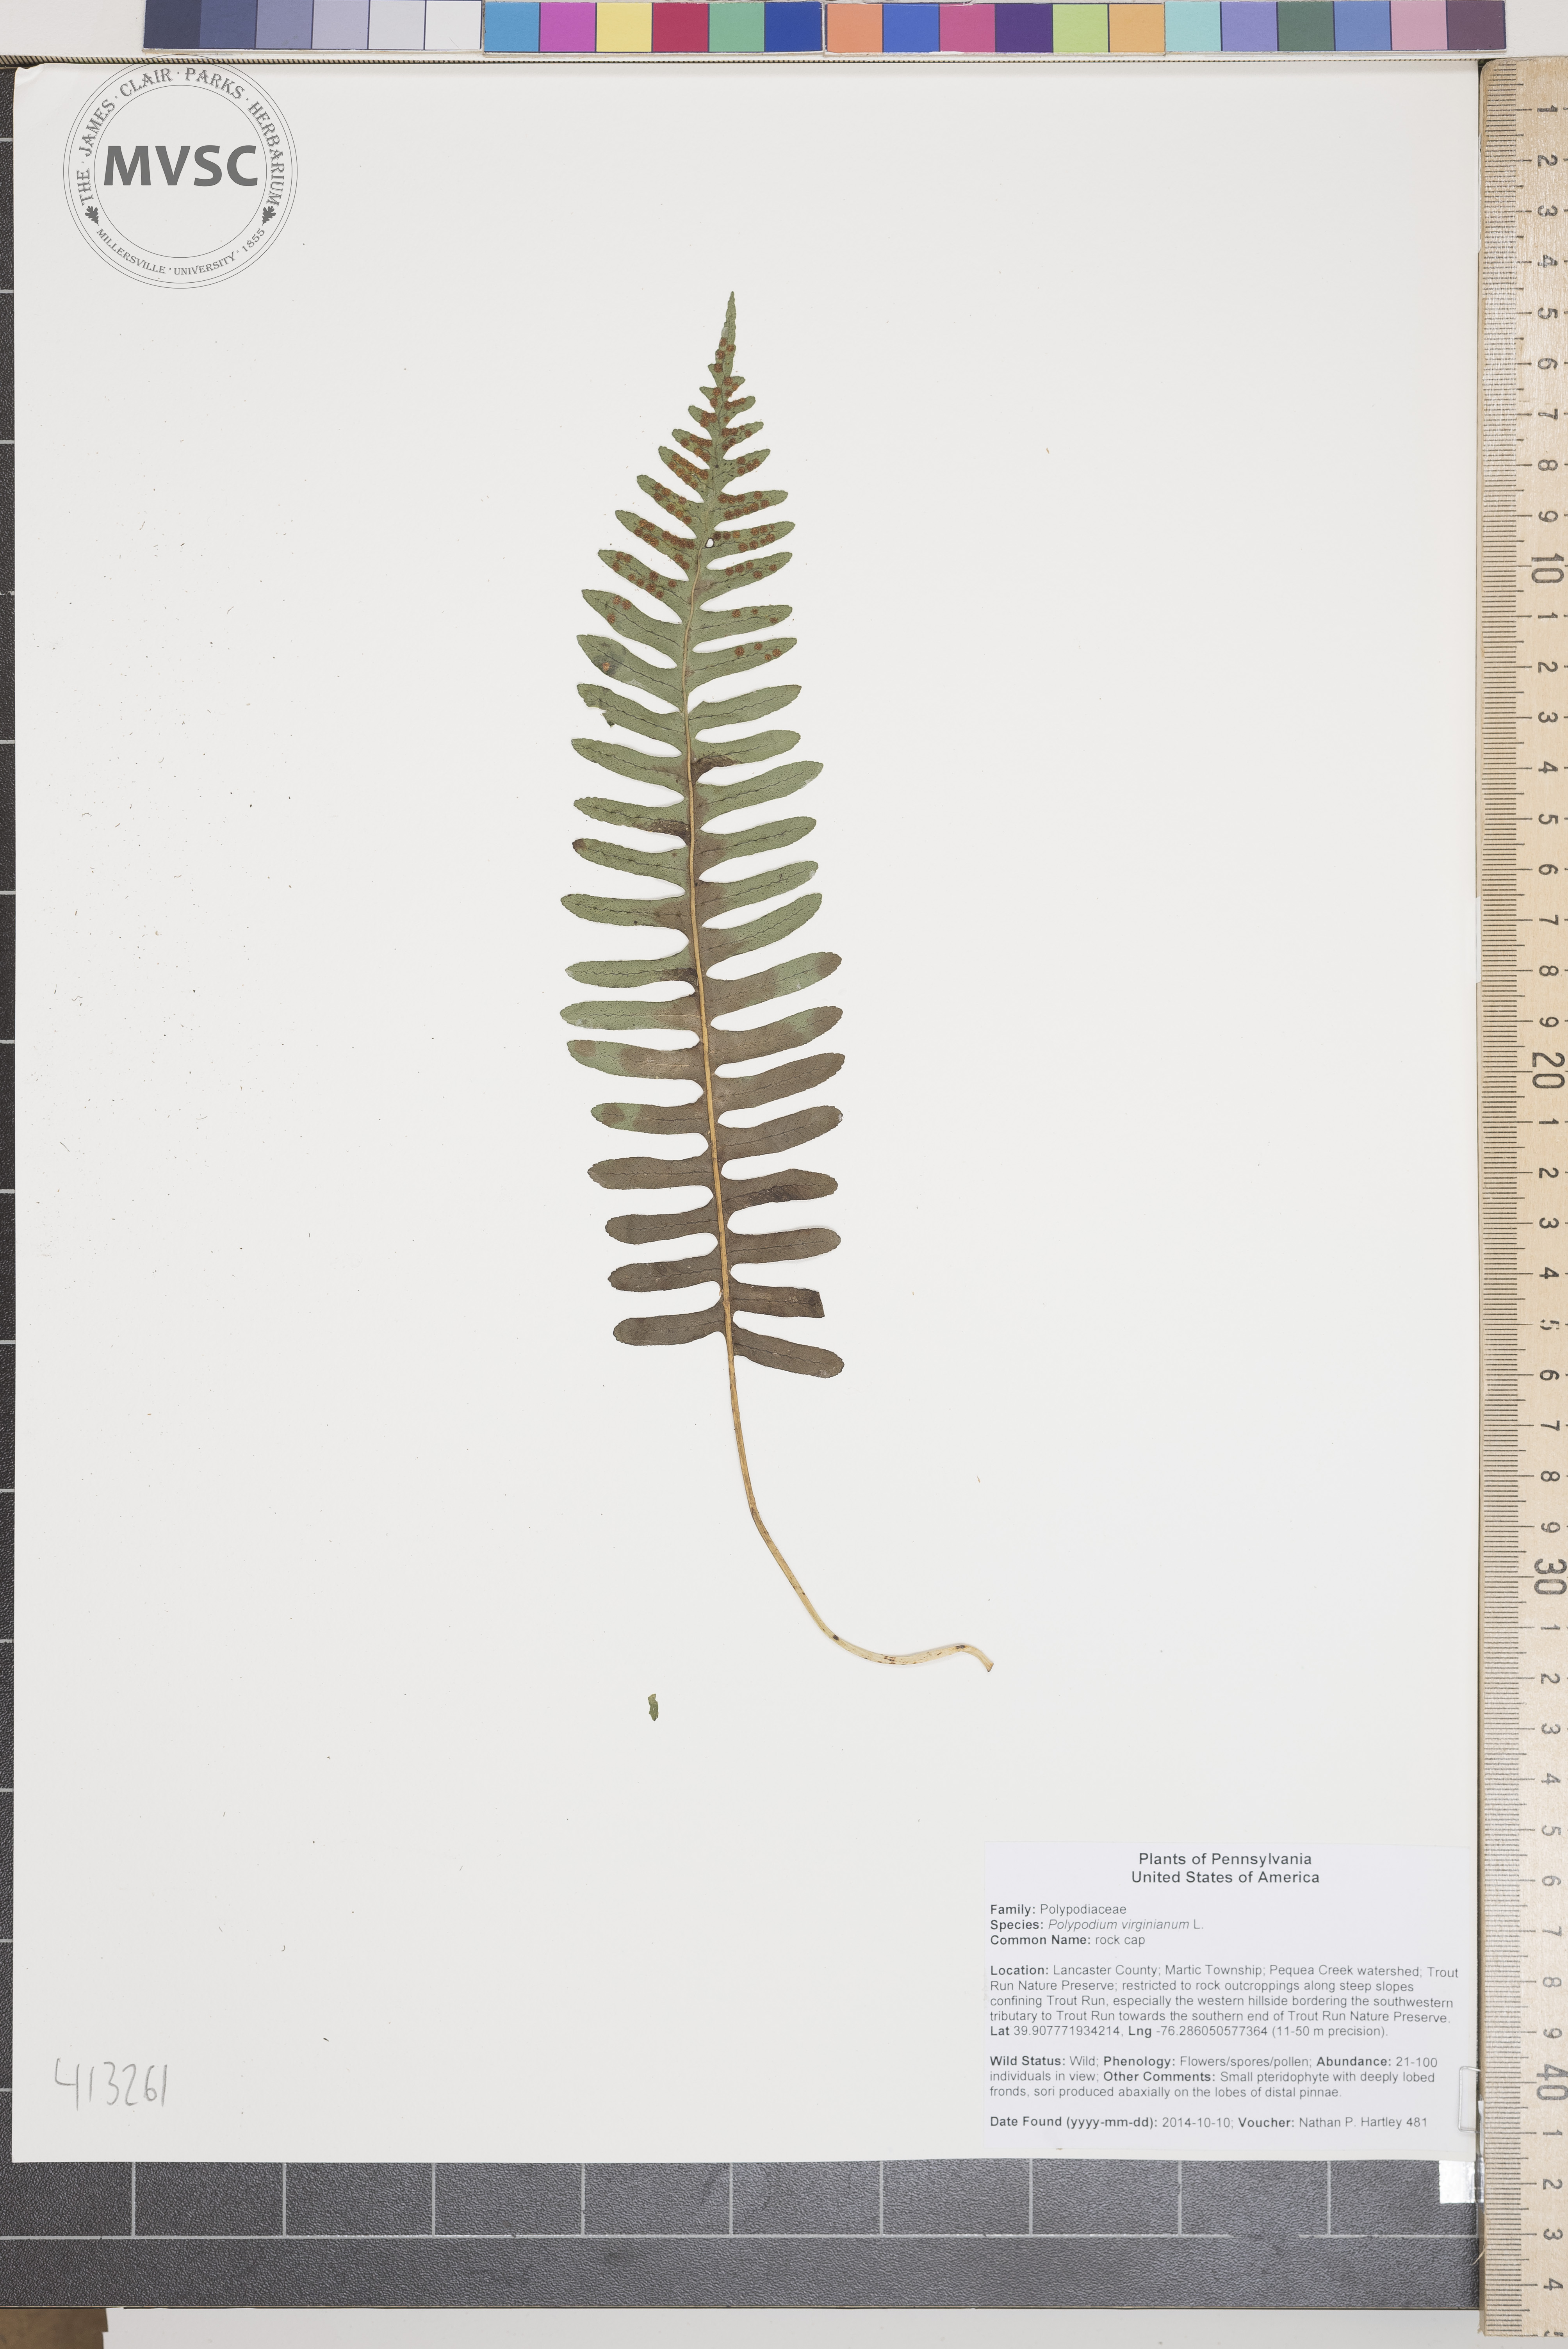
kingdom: Plantae
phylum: Tracheophyta
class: Polypodiopsida
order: Polypodiales
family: Polypodiaceae
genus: Polypodium
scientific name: Polypodium virginianum
